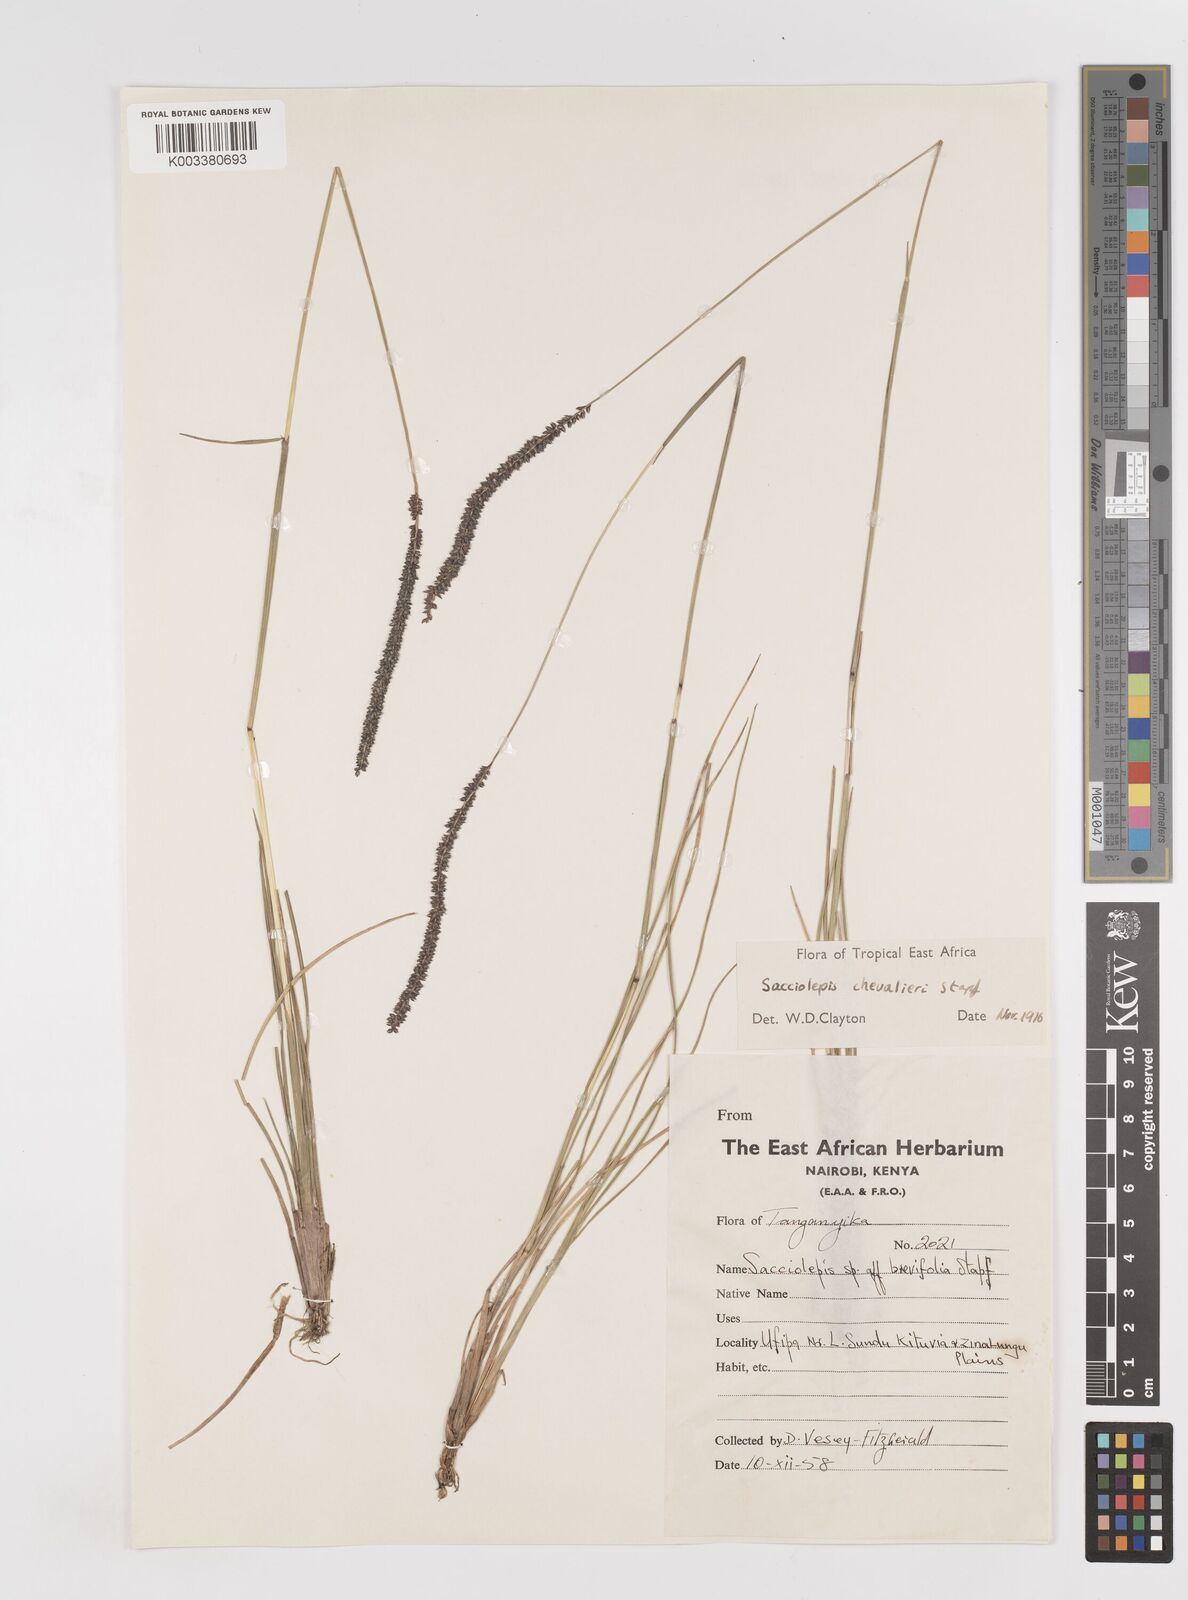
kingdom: Plantae
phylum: Tracheophyta
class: Liliopsida
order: Poales
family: Poaceae
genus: Sacciolepis
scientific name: Sacciolepis chevalieri
